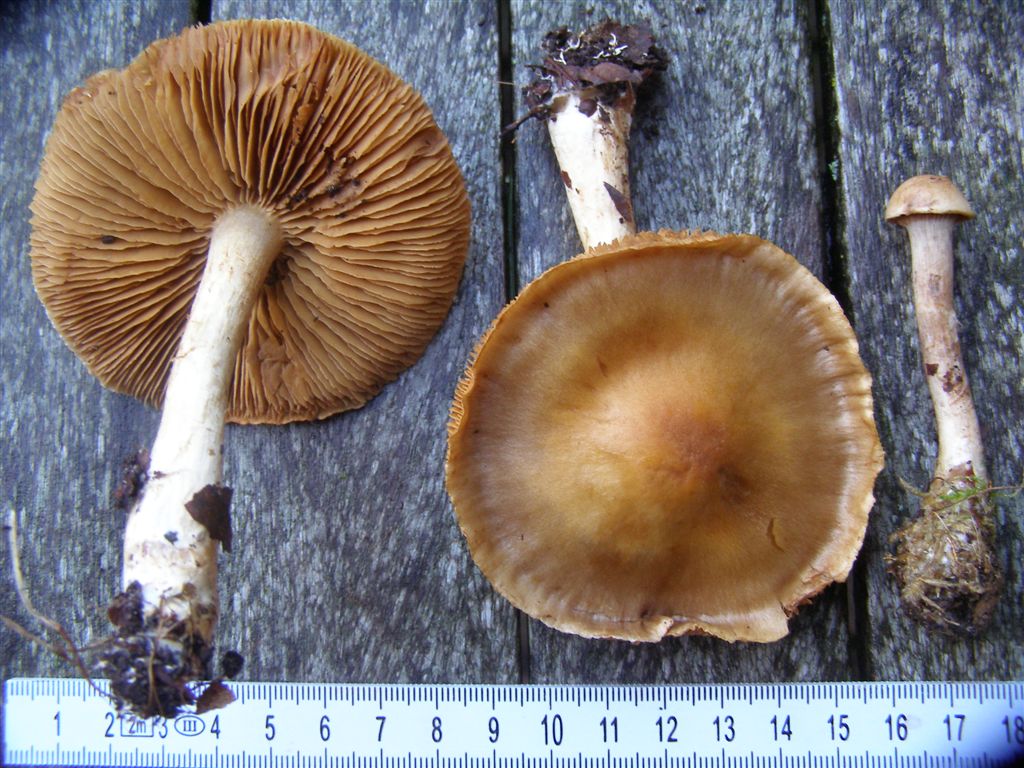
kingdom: Fungi
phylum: Basidiomycota
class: Agaricomycetes
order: Agaricales
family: Cortinariaceae
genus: Cortinarius
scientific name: Cortinarius anomalus
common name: Variable webcap
